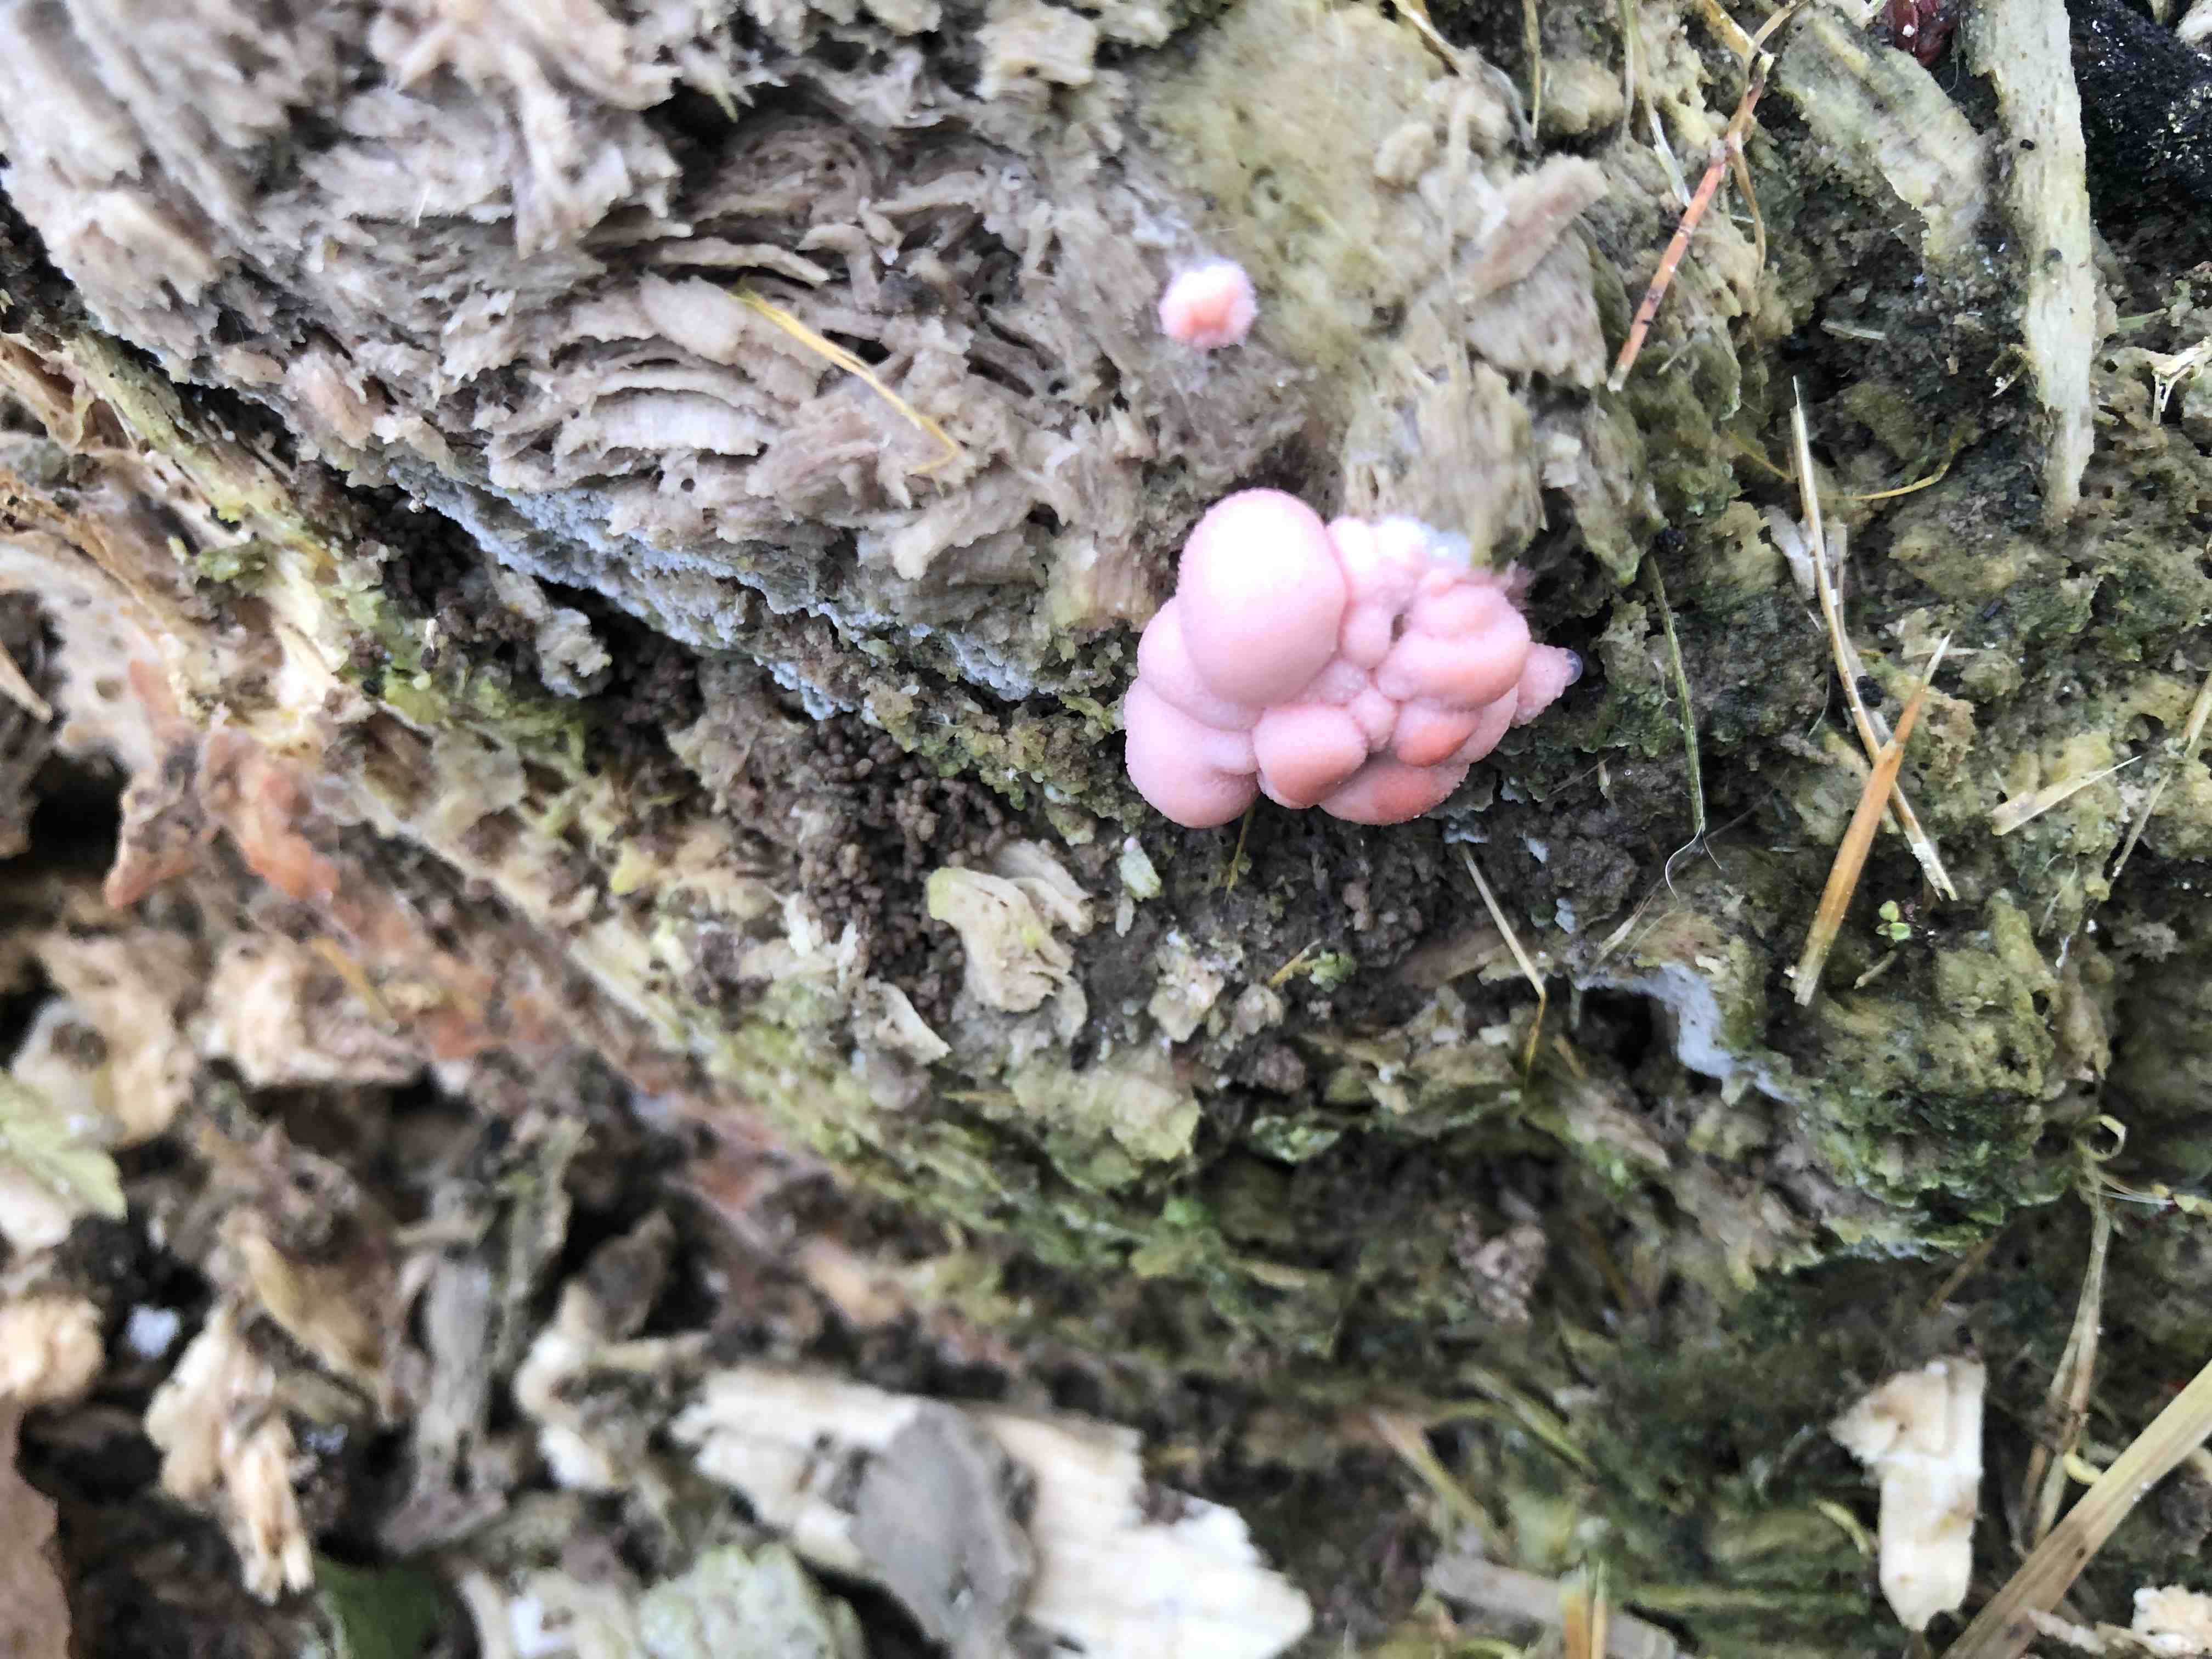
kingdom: Protozoa
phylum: Mycetozoa
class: Myxomycetes
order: Cribrariales
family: Tubiferaceae
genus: Lycogala
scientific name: Lycogala epidendrum
